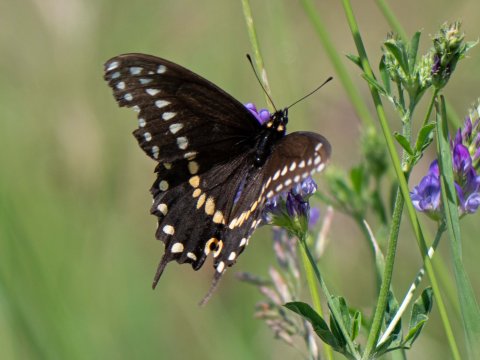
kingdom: Animalia
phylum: Arthropoda
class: Insecta
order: Lepidoptera
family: Papilionidae
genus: Papilio
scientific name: Papilio polyxenes
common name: Black Swallowtail
